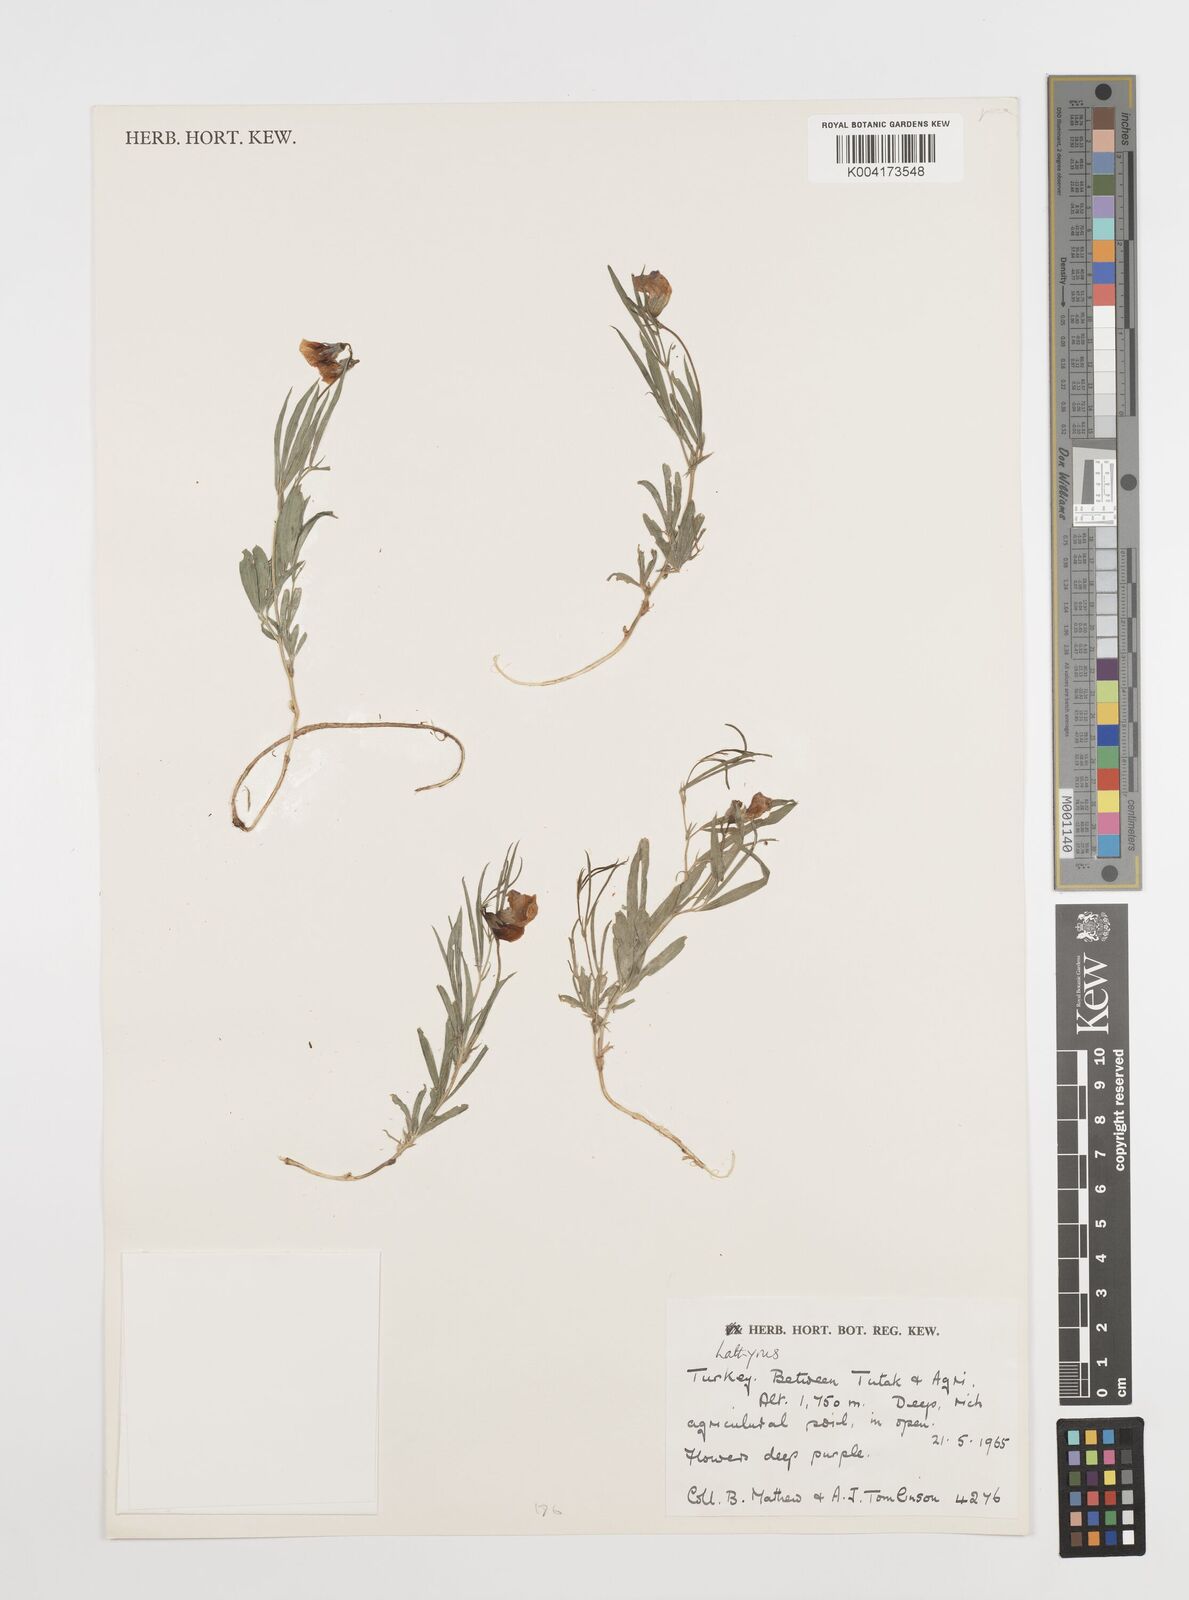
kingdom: Plantae
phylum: Tracheophyta
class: Magnoliopsida
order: Fabales
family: Fabaceae
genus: Lathyrus
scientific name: Lathyrus
